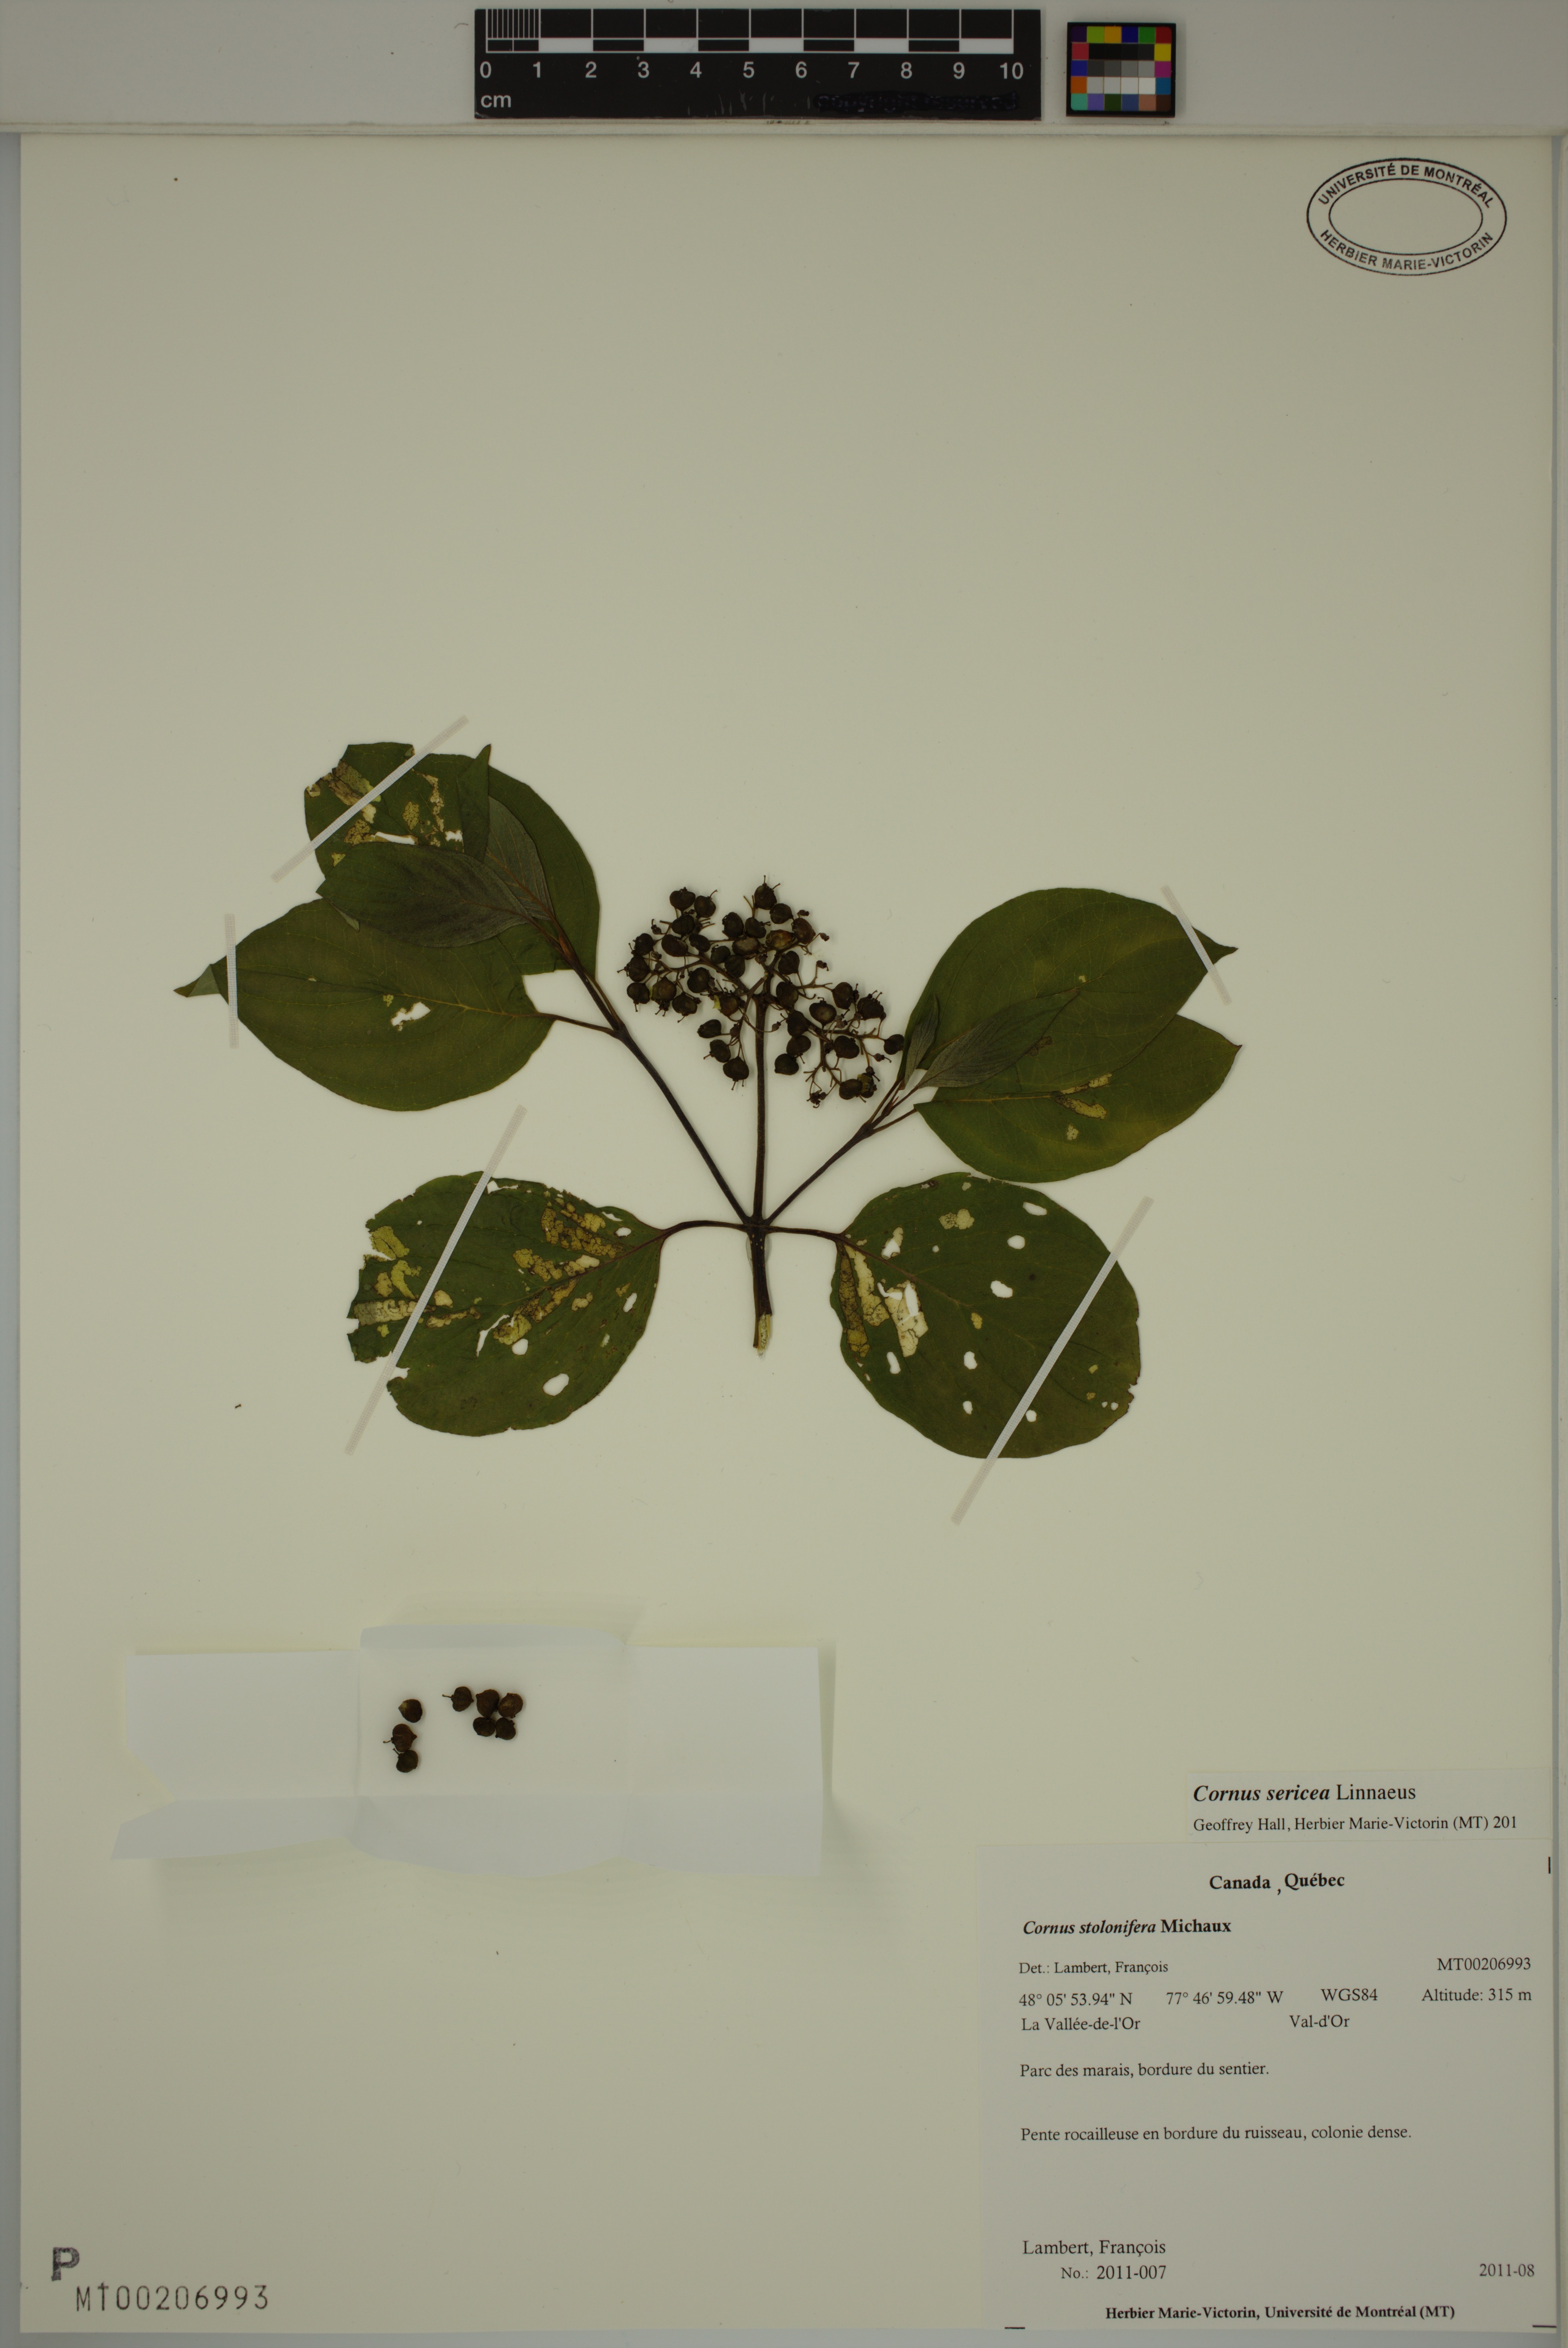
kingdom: Plantae
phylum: Tracheophyta
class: Magnoliopsida
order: Cornales
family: Cornaceae
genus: Cornus
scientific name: Cornus sericea
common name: Red-osier dogwood
